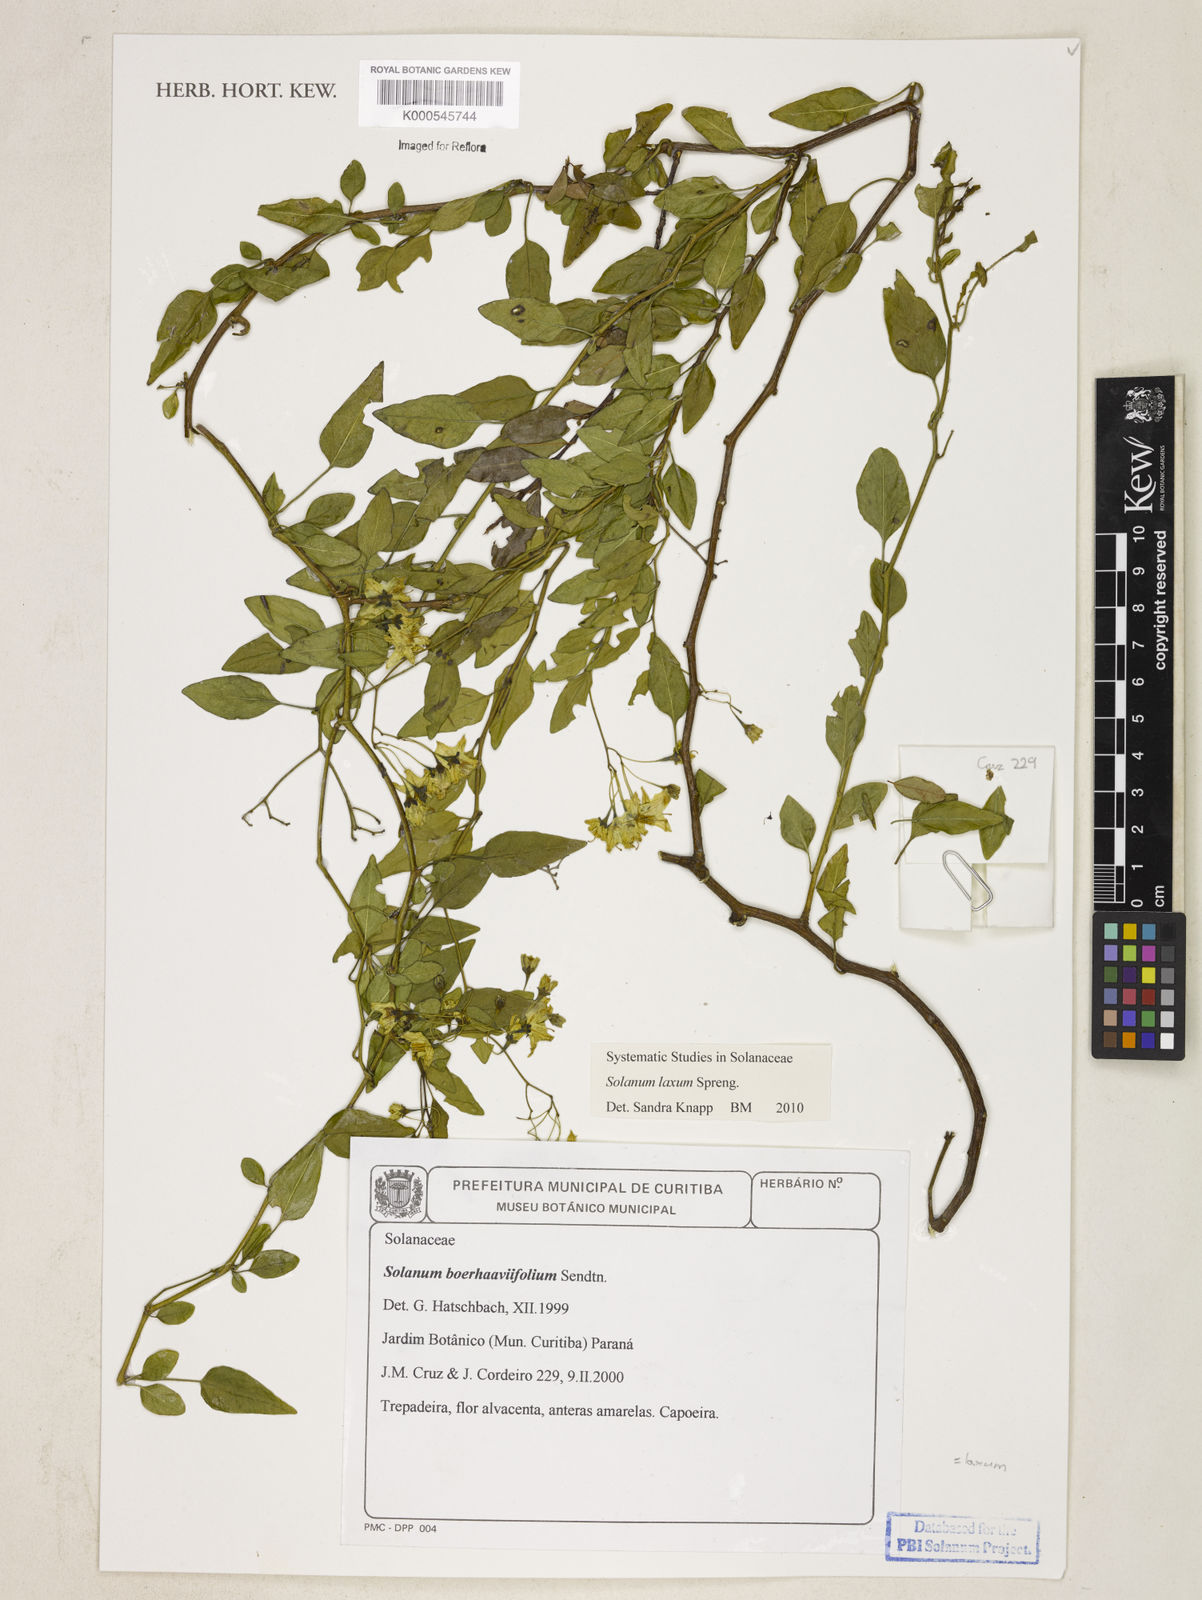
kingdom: Plantae
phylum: Tracheophyta
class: Magnoliopsida
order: Solanales
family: Solanaceae
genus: Solanum
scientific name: Solanum laxum
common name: Nightshade
